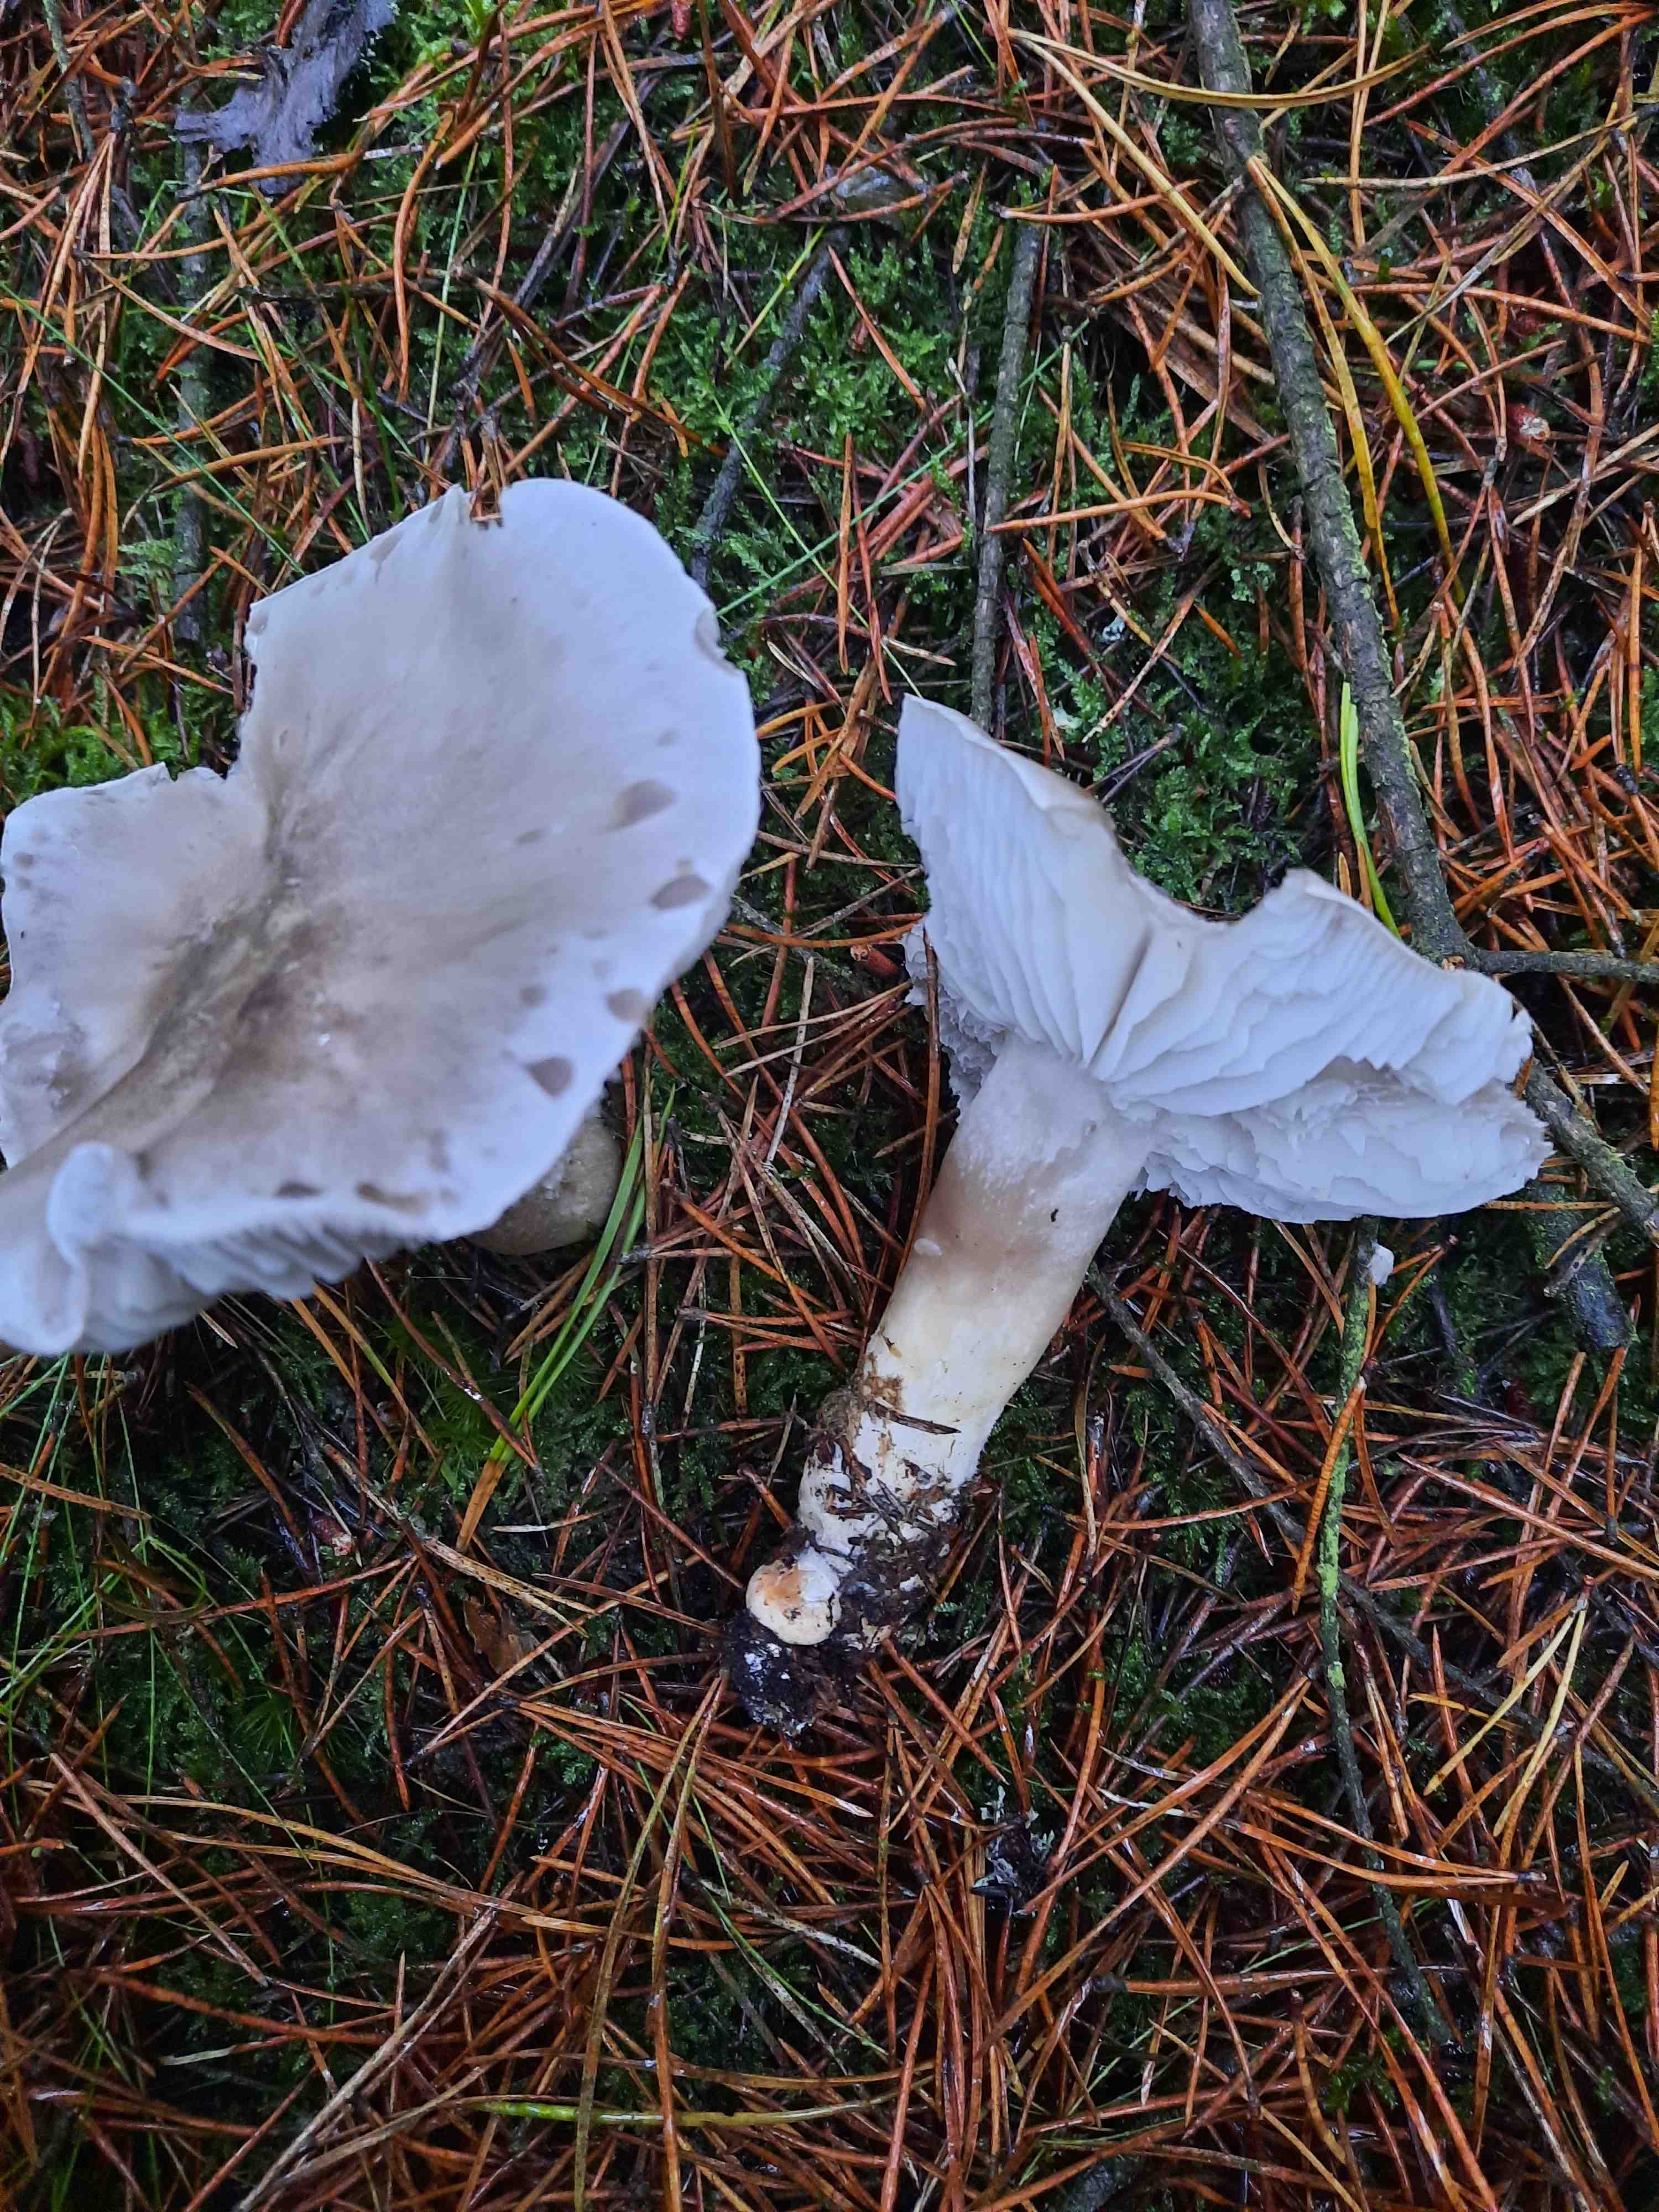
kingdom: Fungi
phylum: Basidiomycota
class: Agaricomycetes
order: Agaricales
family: Tricholomataceae
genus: Tricholoma
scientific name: Tricholoma sudum
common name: tør ridderhat
